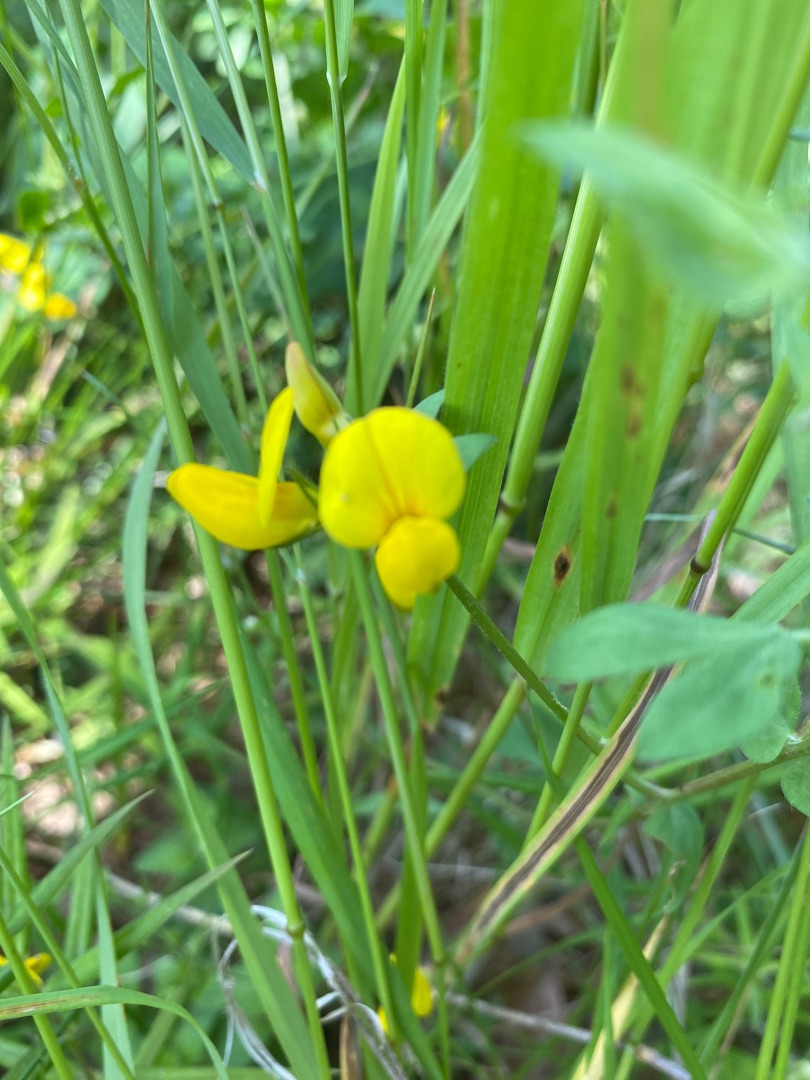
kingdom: Plantae
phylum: Tracheophyta
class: Magnoliopsida
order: Fabales
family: Fabaceae
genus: Lotus
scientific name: Lotus corniculatus
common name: Almindelig kællingetand
